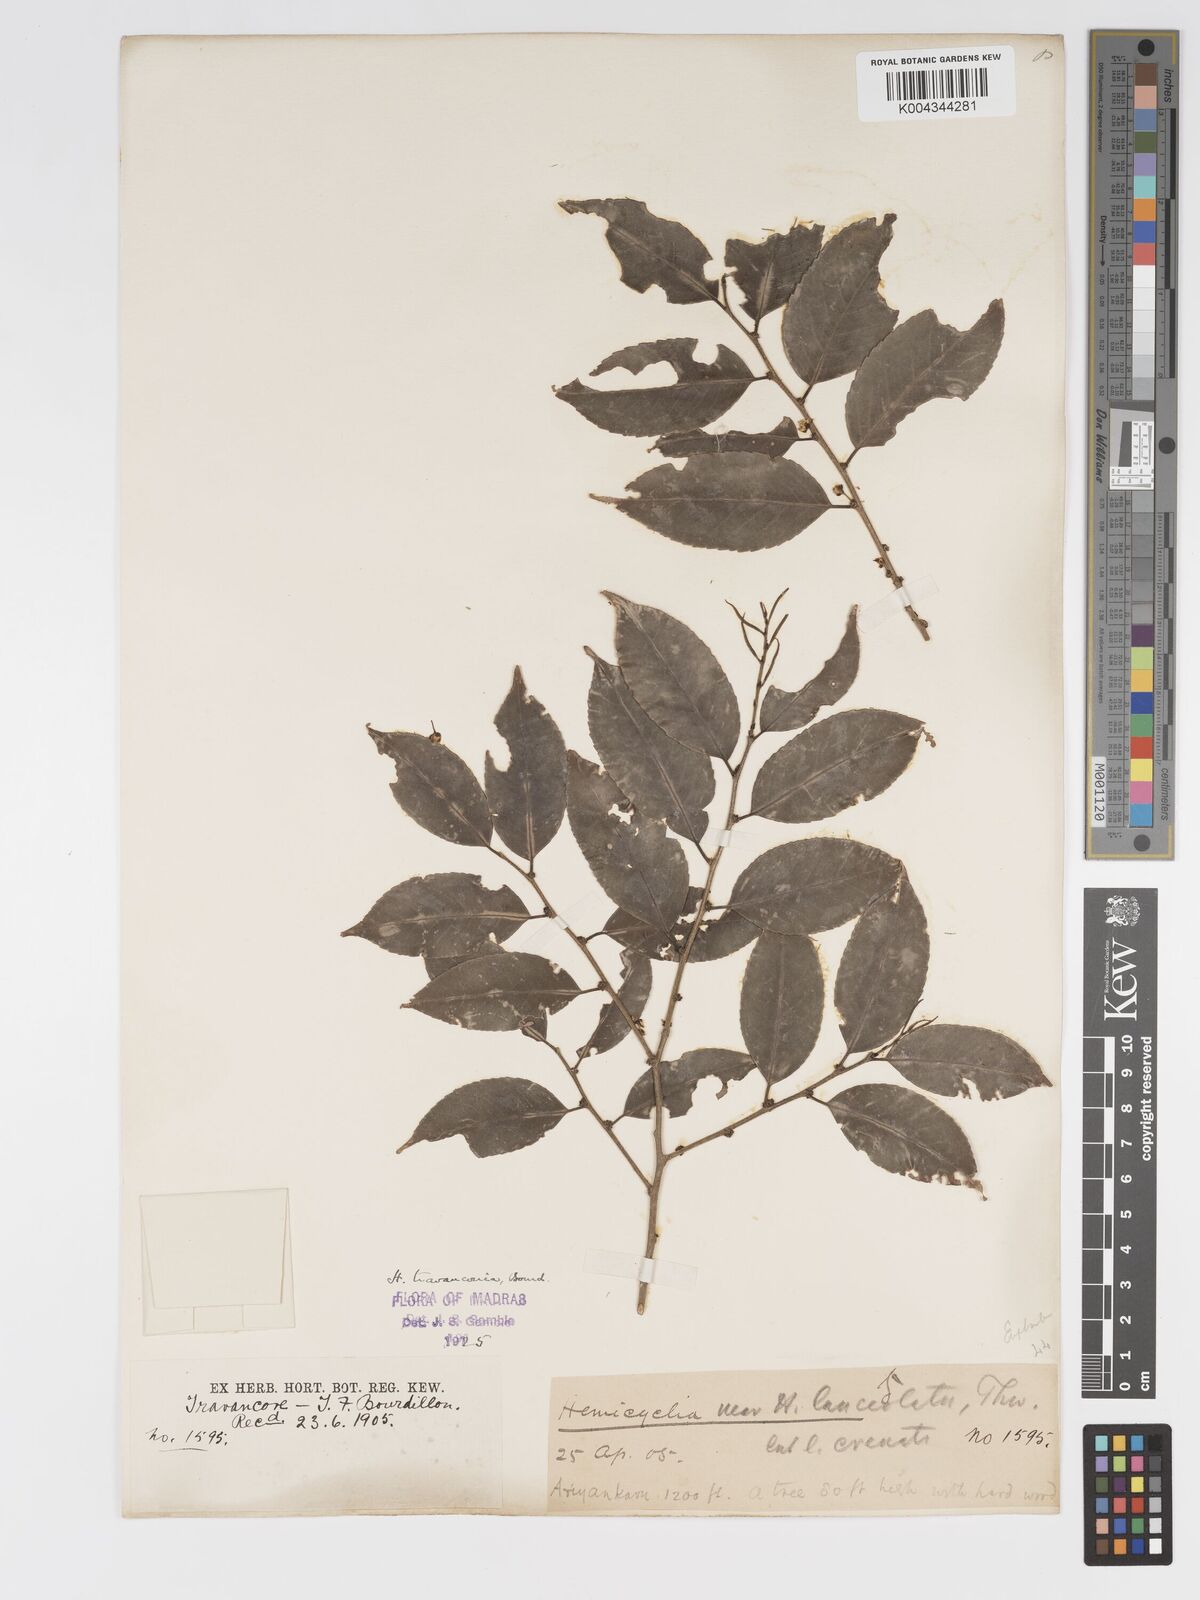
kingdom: Plantae
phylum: Tracheophyta
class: Magnoliopsida
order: Malpighiales
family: Putranjivaceae
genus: Drypetes
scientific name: Drypetes gardneri
